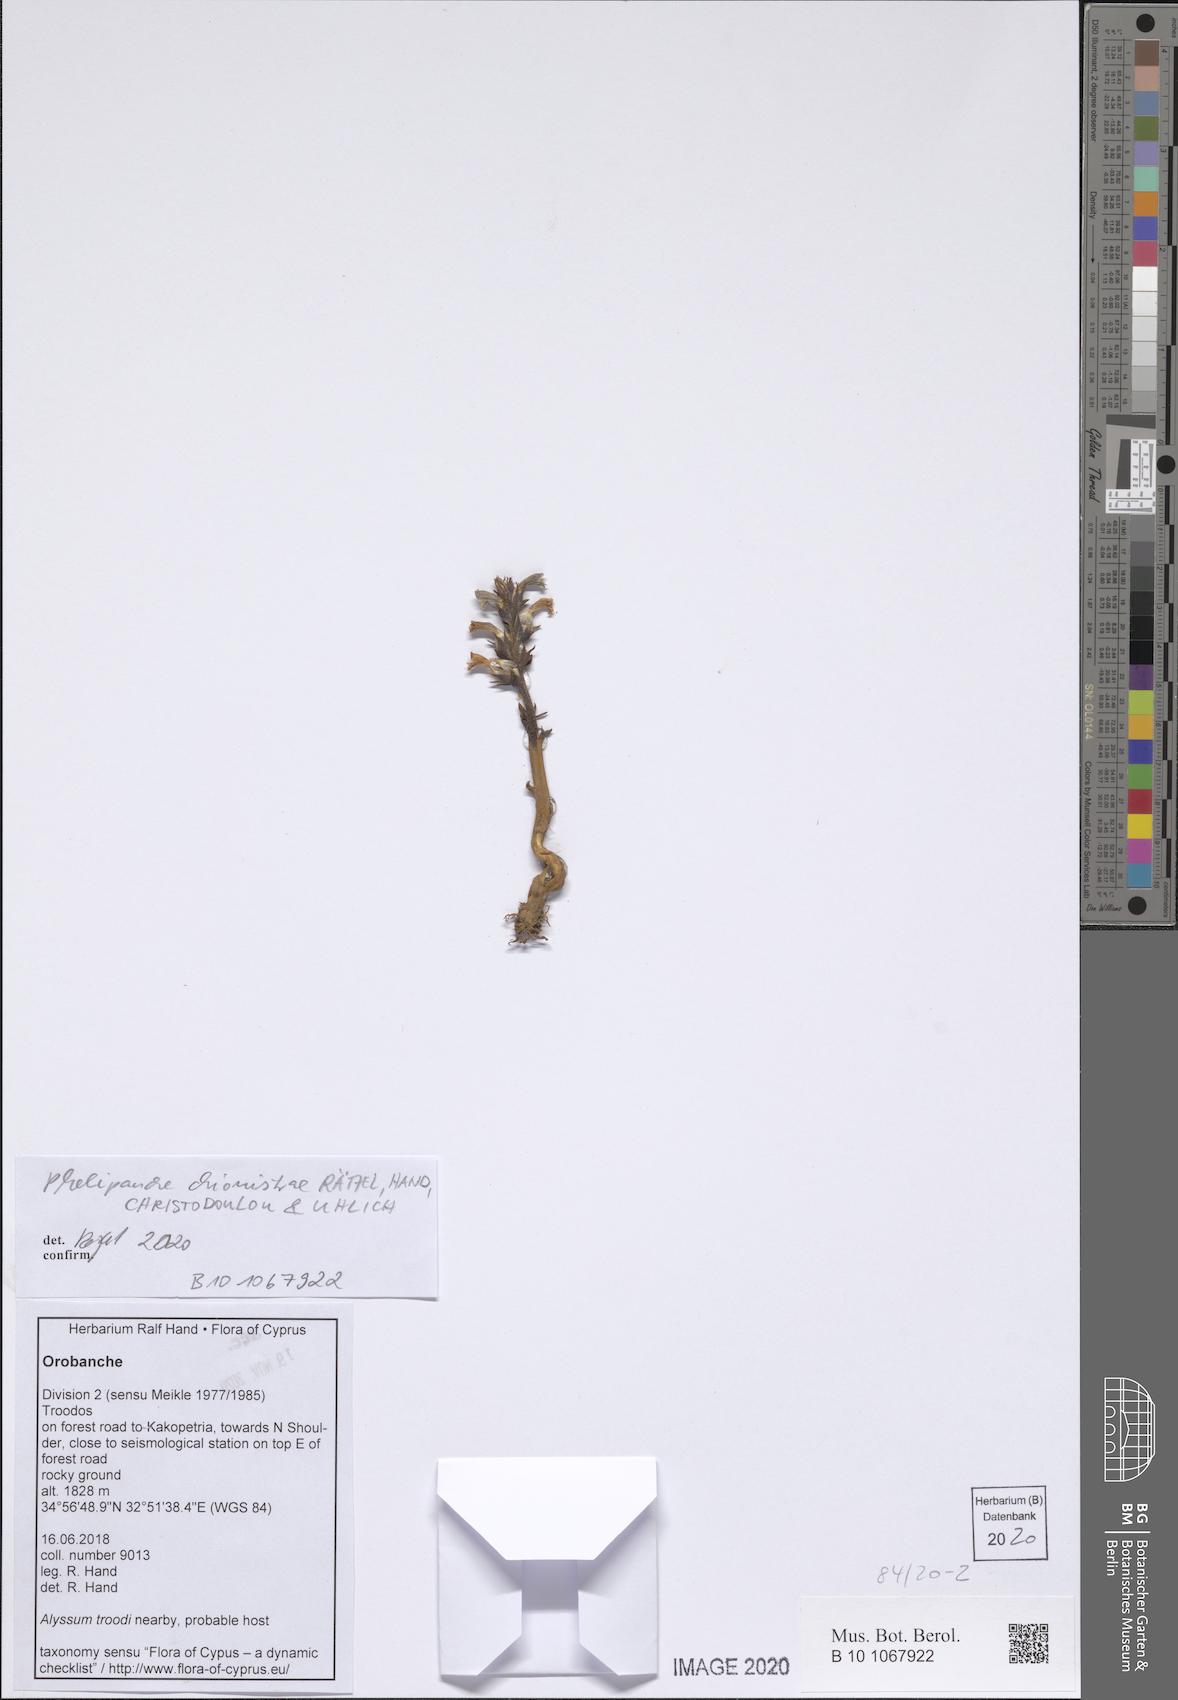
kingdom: Plantae
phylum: Tracheophyta
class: Magnoliopsida
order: Lamiales
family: Orobanchaceae
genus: Phelipanche
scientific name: Phelipanche chionistrae
